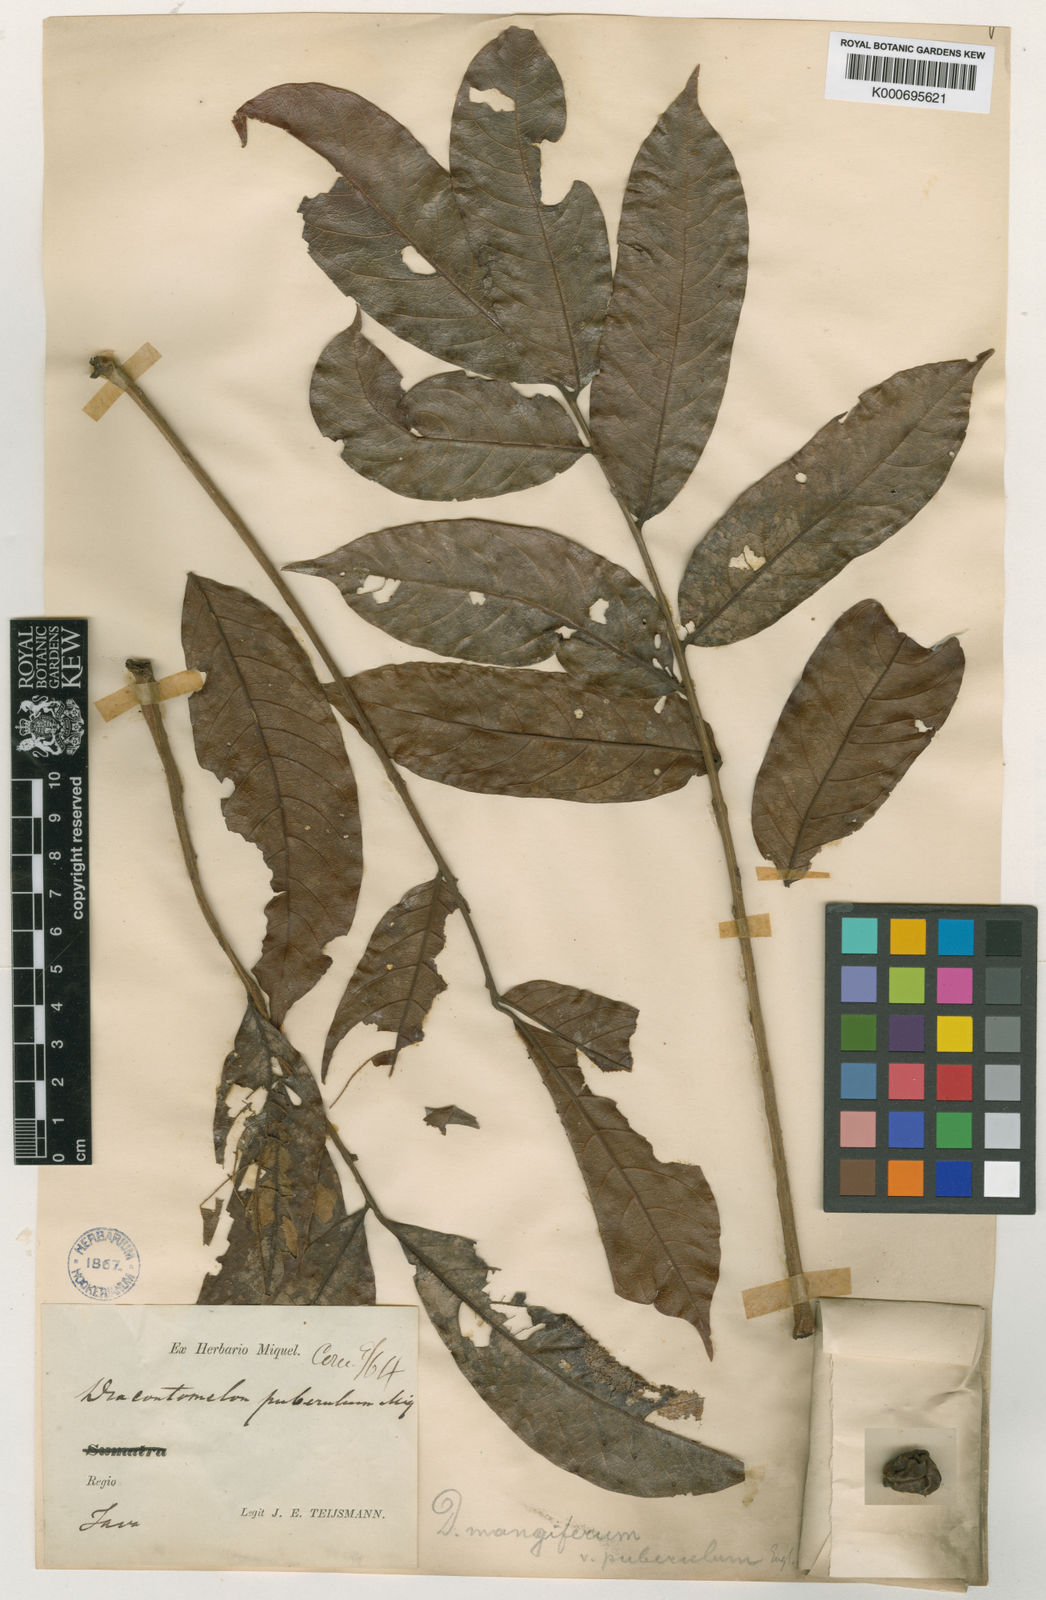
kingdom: Plantae
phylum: Tracheophyta
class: Magnoliopsida
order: Sapindales
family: Anacardiaceae
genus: Dracontomelon
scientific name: Dracontomelon dao
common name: Argus pheasant-tree
